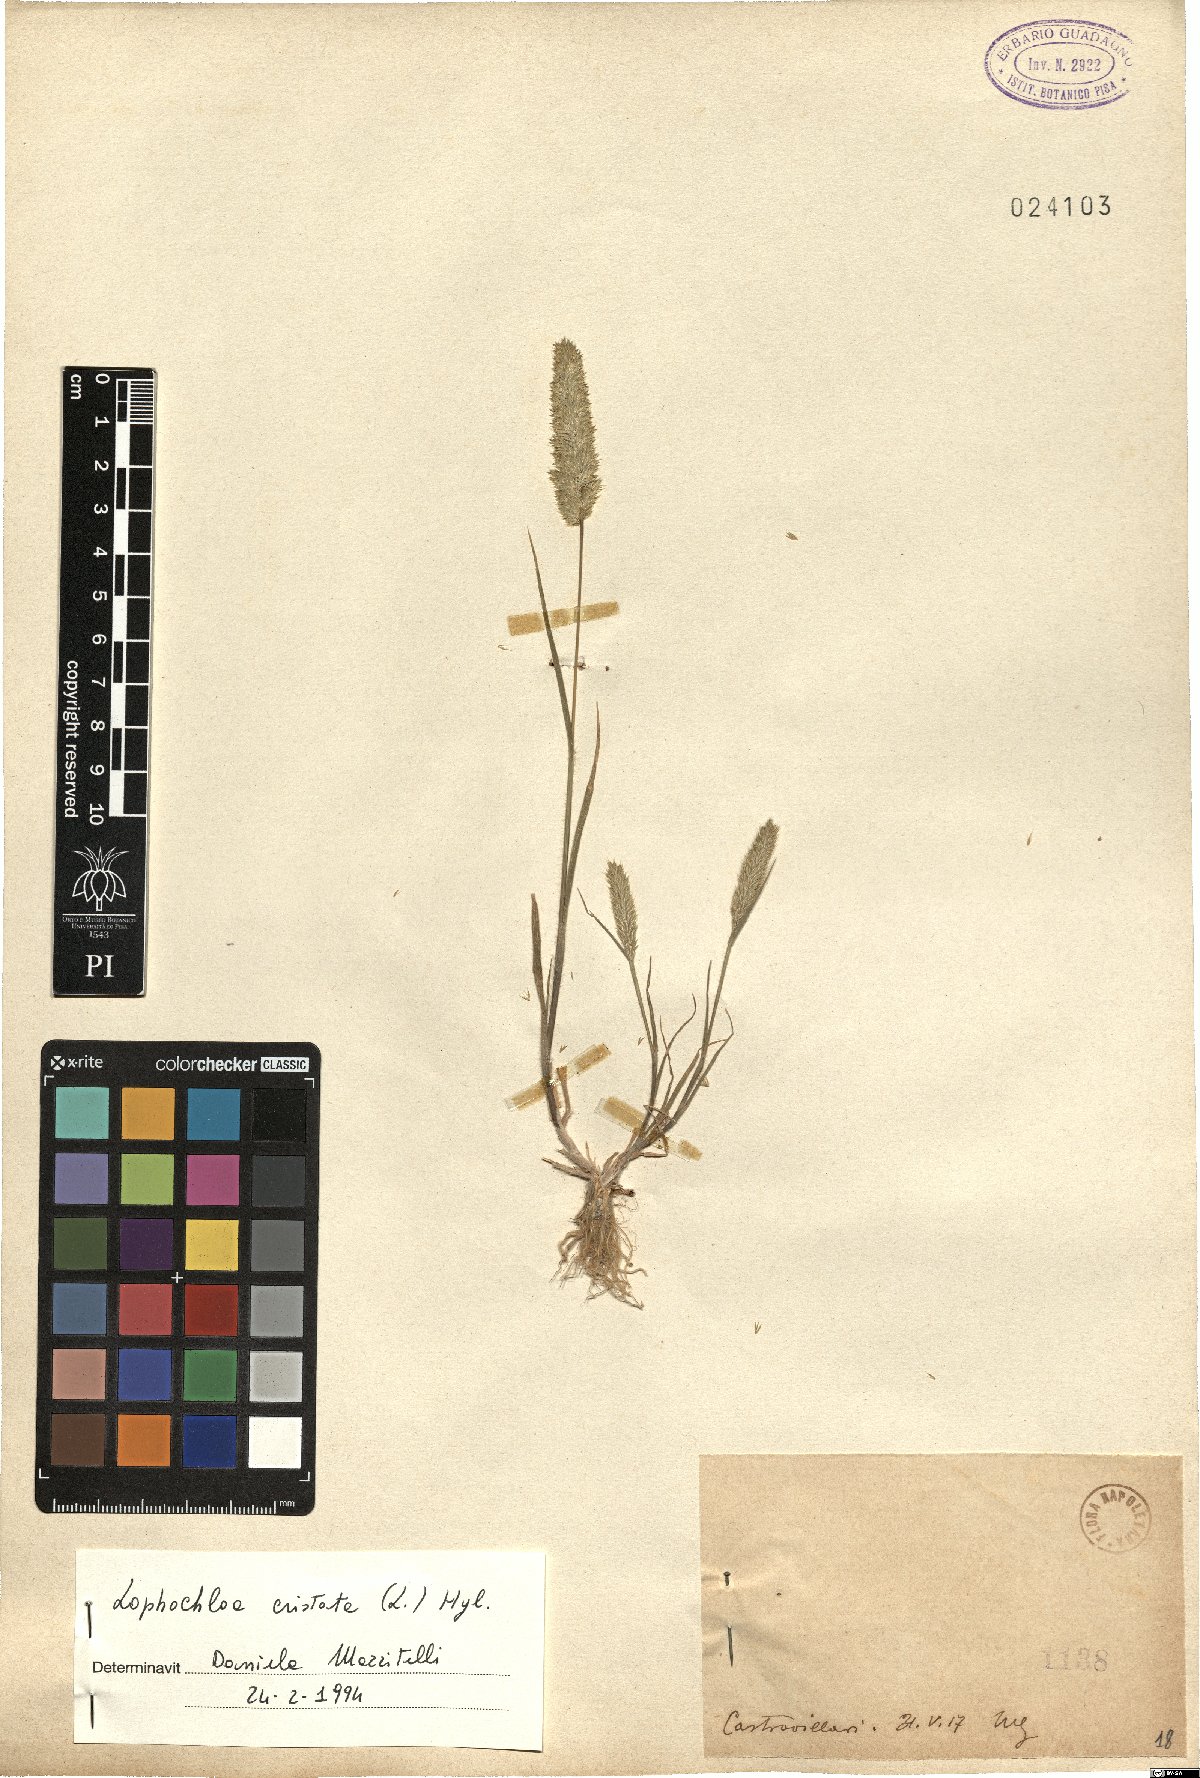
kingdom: Plantae
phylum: Tracheophyta
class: Liliopsida
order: Poales
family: Poaceae
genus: Rostraria
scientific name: Rostraria cristata
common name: Mediterranean hair-grass
